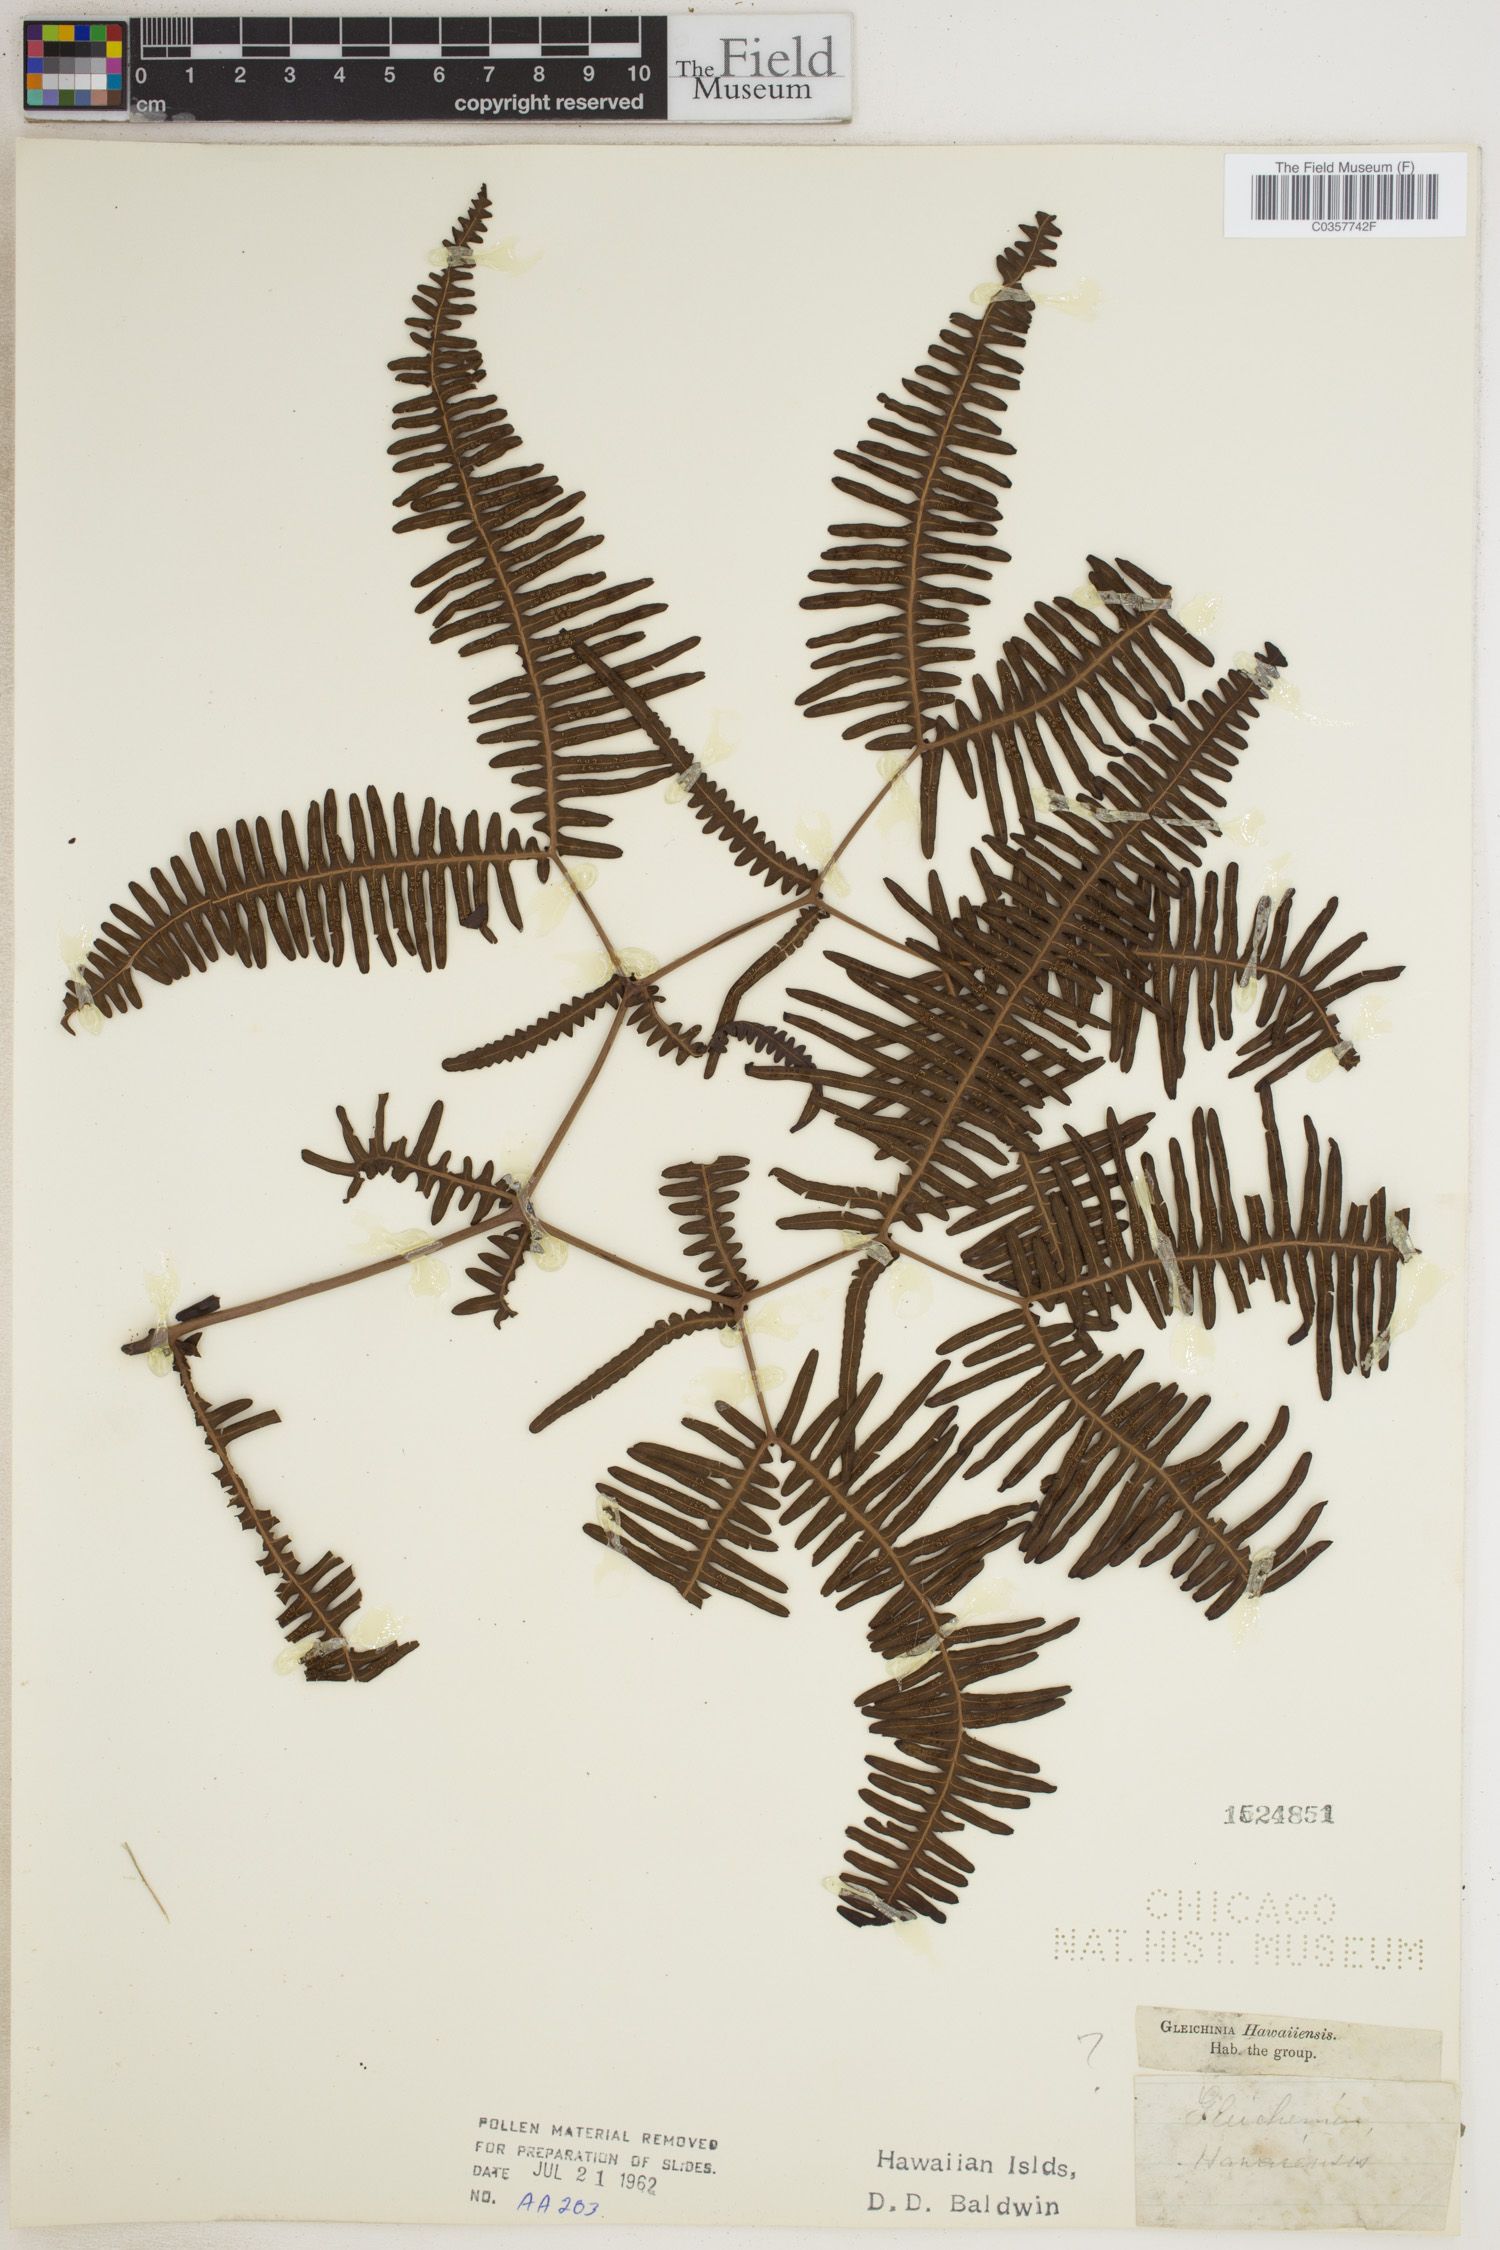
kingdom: Plantae
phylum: Tracheophyta
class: Polypodiopsida
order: Gleicheniales
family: Gleicheniaceae
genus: Sticherus
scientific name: Sticherus owhyhensis
